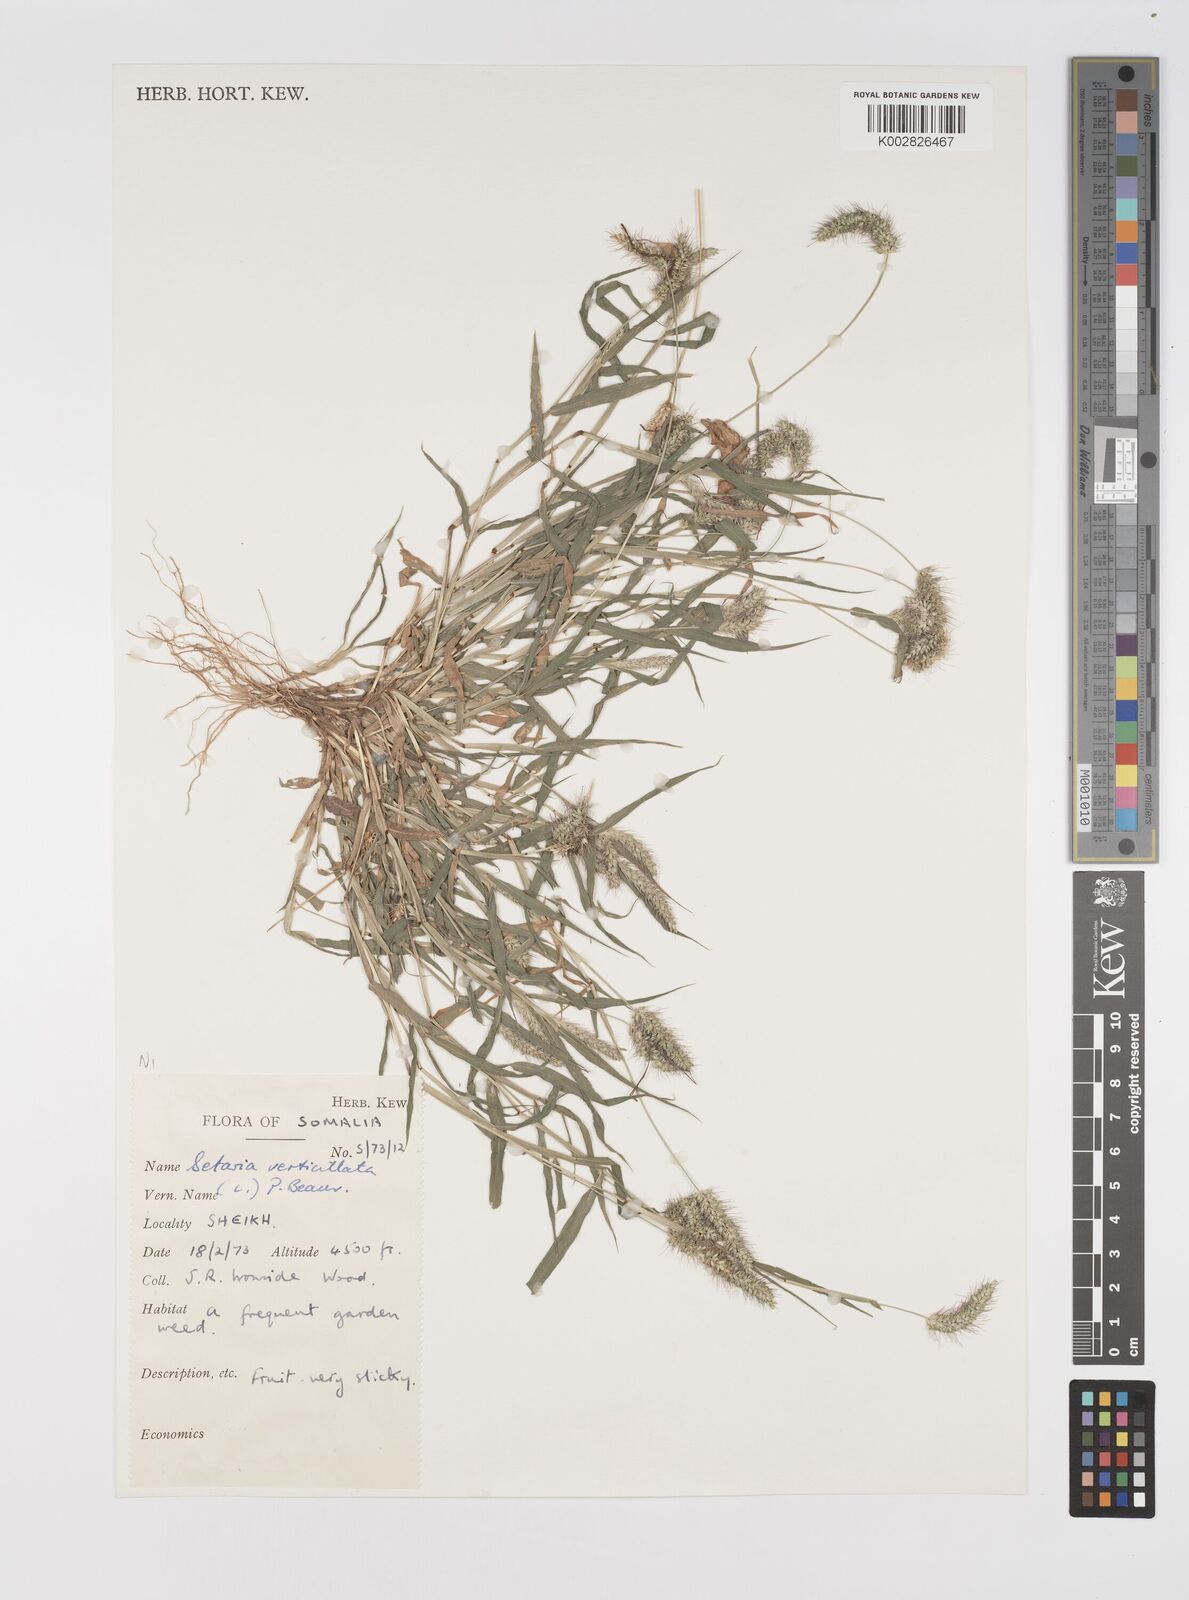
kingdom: Plantae
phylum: Tracheophyta
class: Liliopsida
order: Poales
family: Poaceae
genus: Setaria
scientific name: Setaria verticillata
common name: Hooked bristlegrass
